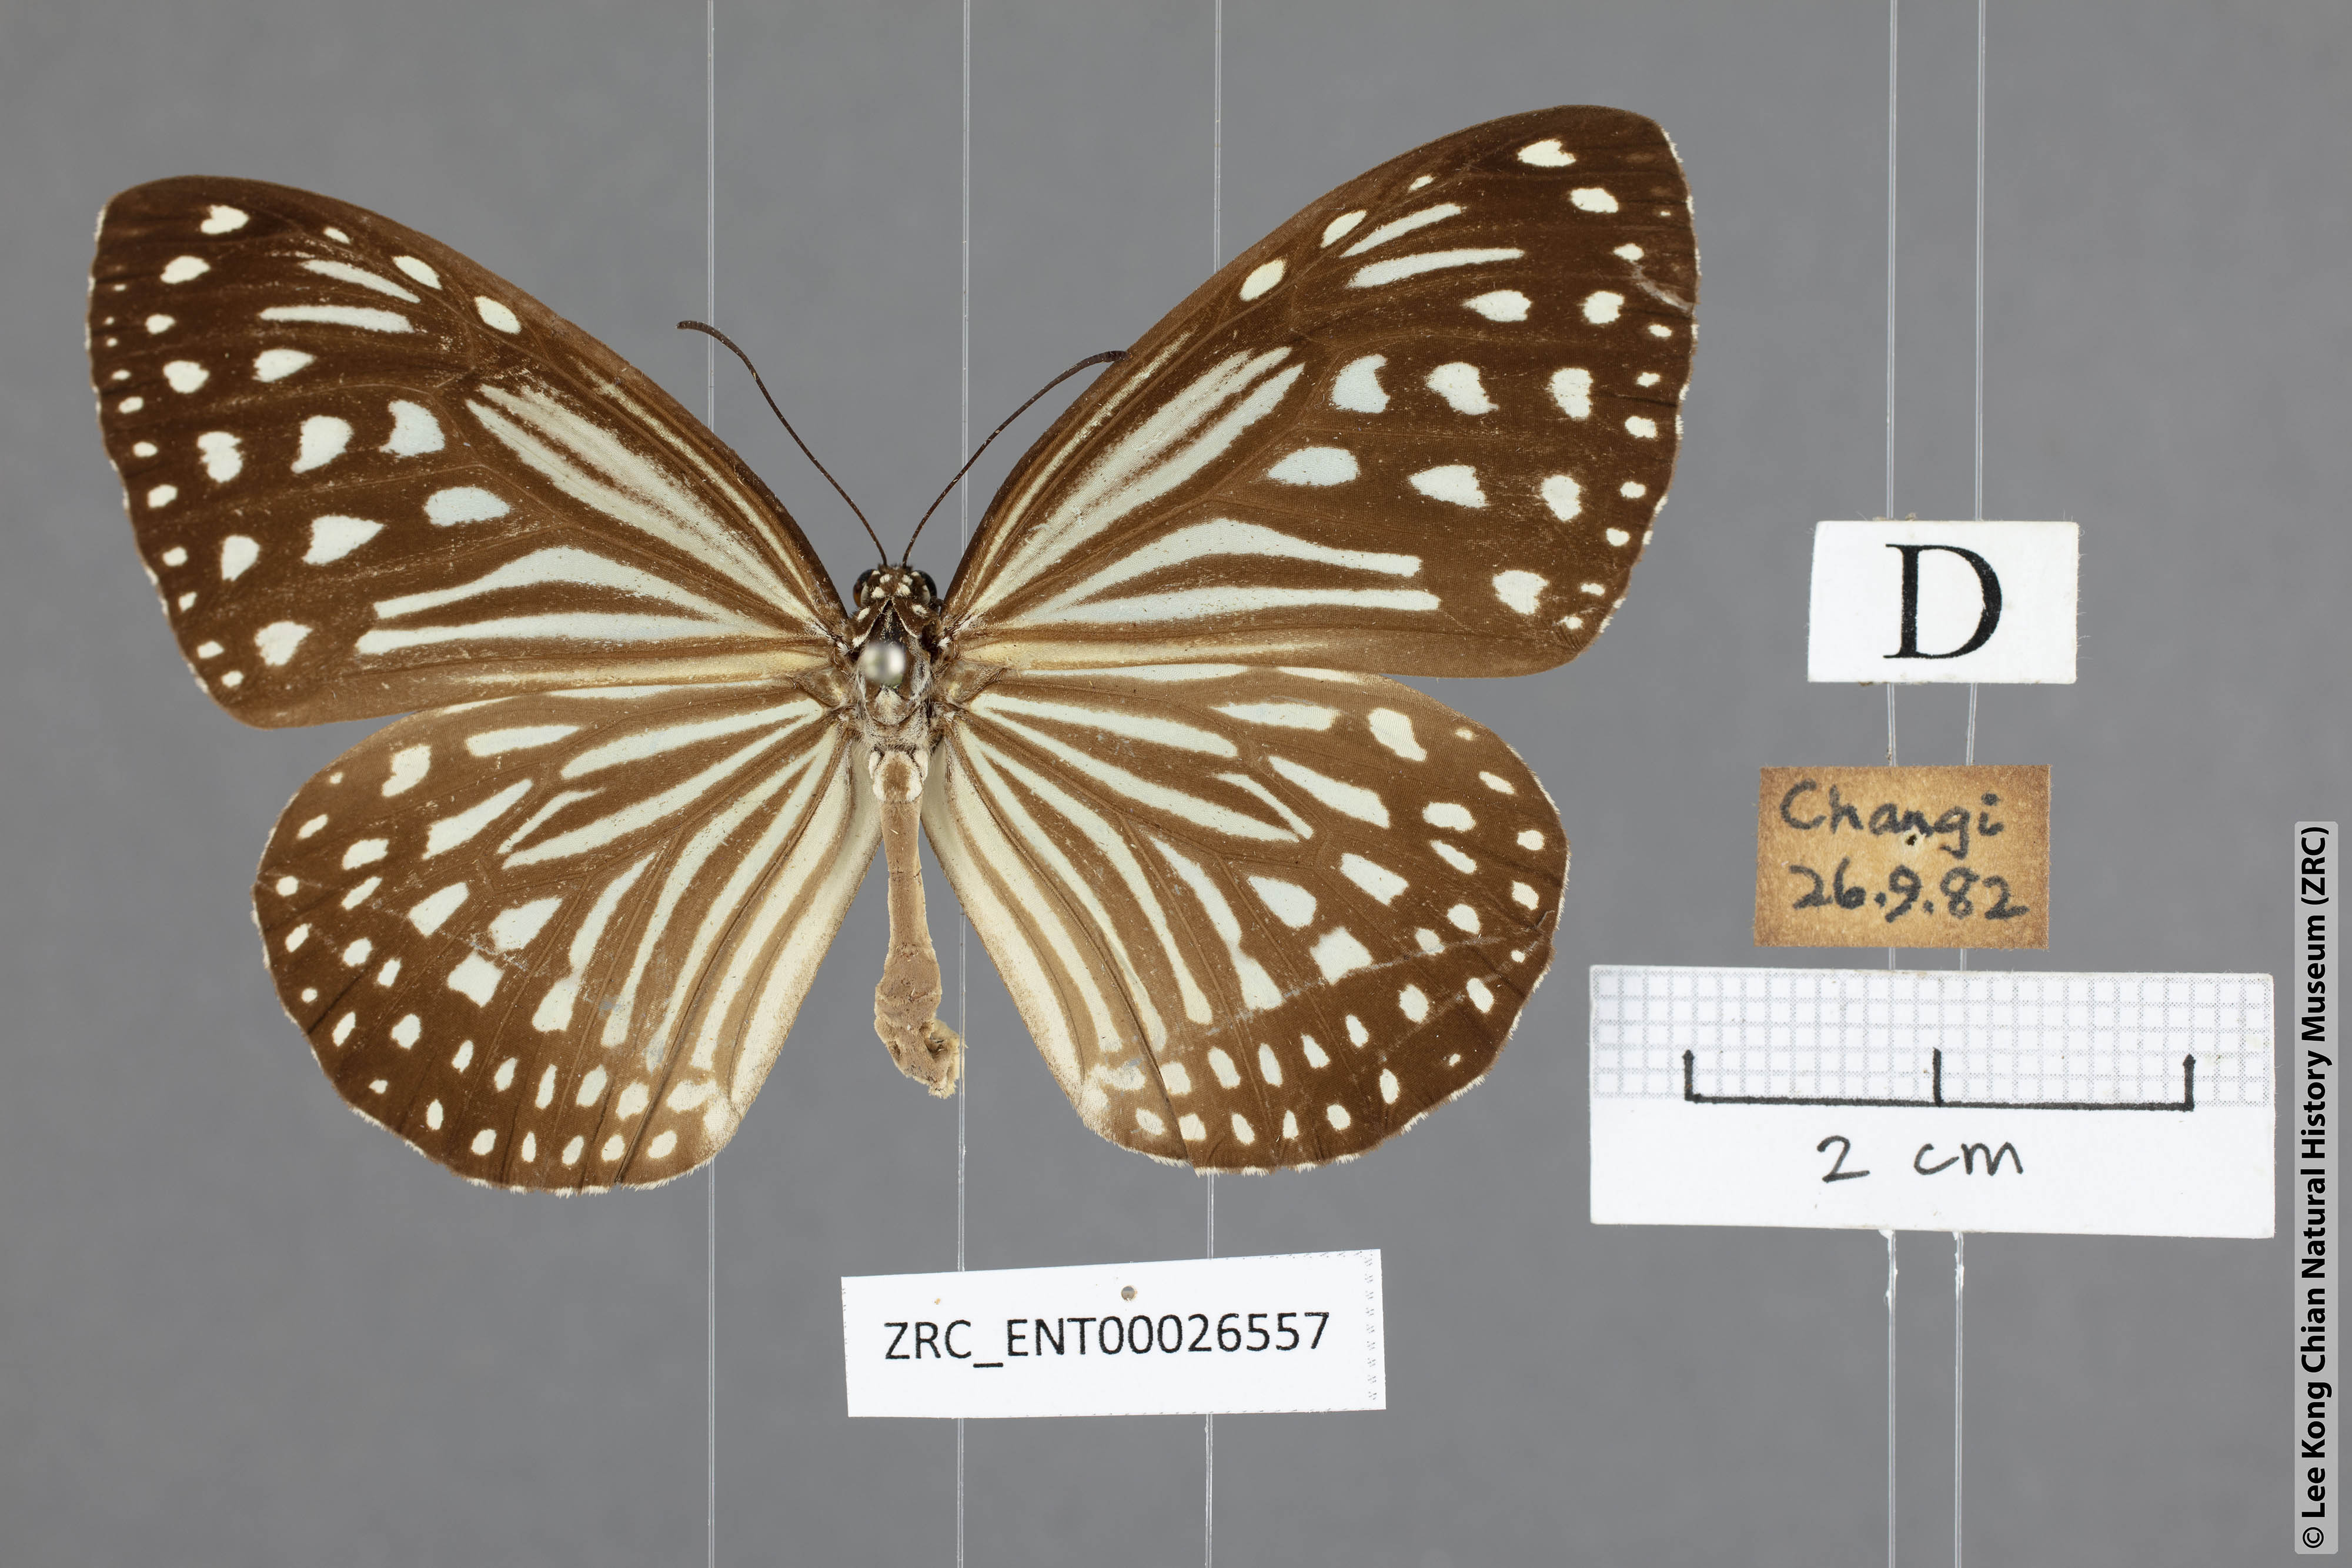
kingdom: Animalia
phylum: Arthropoda
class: Insecta
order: Lepidoptera
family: Nymphalidae
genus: Parantica
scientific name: Parantica agleoides
